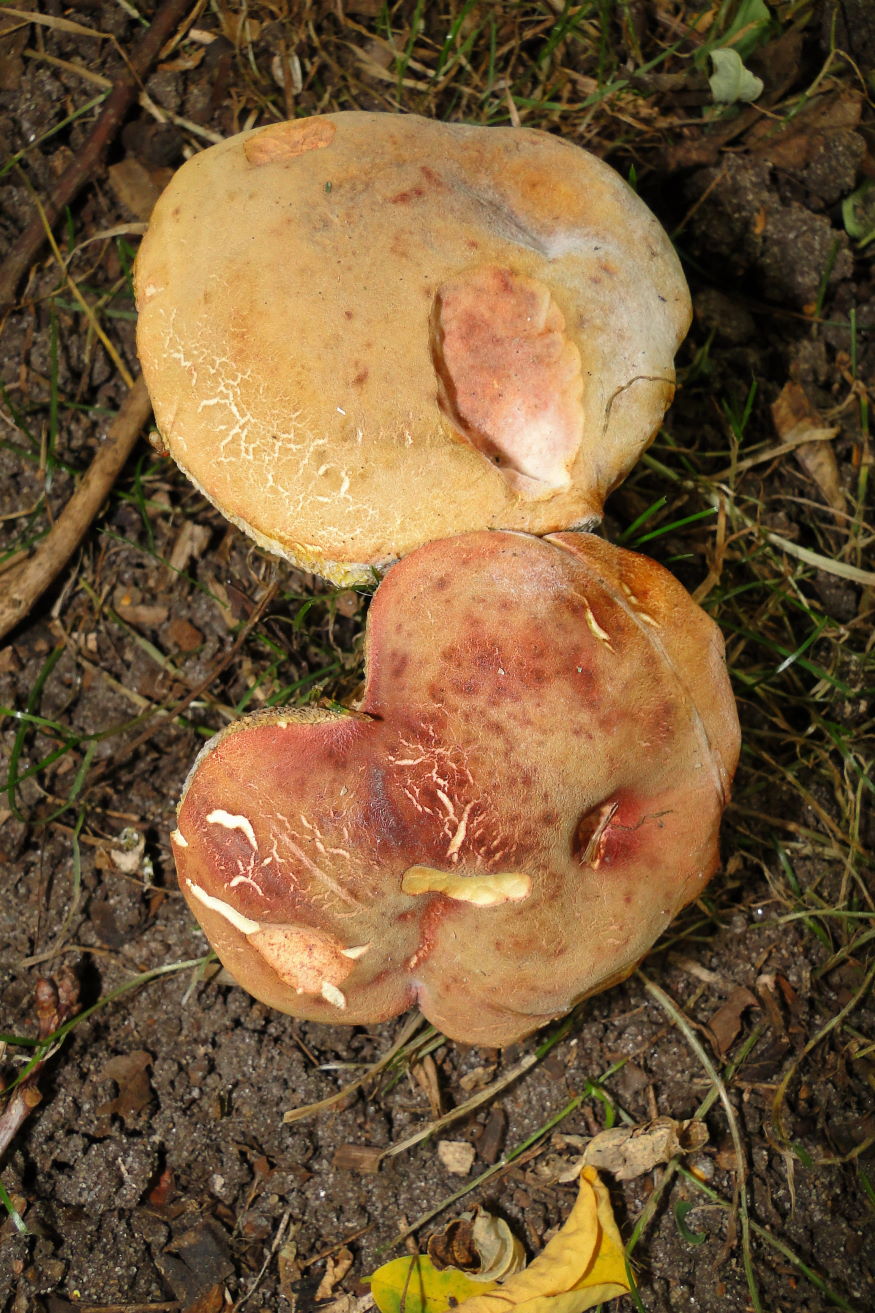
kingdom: Fungi
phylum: Basidiomycota
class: Agaricomycetes
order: Boletales
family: Boletaceae
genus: Hortiboletus
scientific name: Hortiboletus engelii
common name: fersken-rørhat
